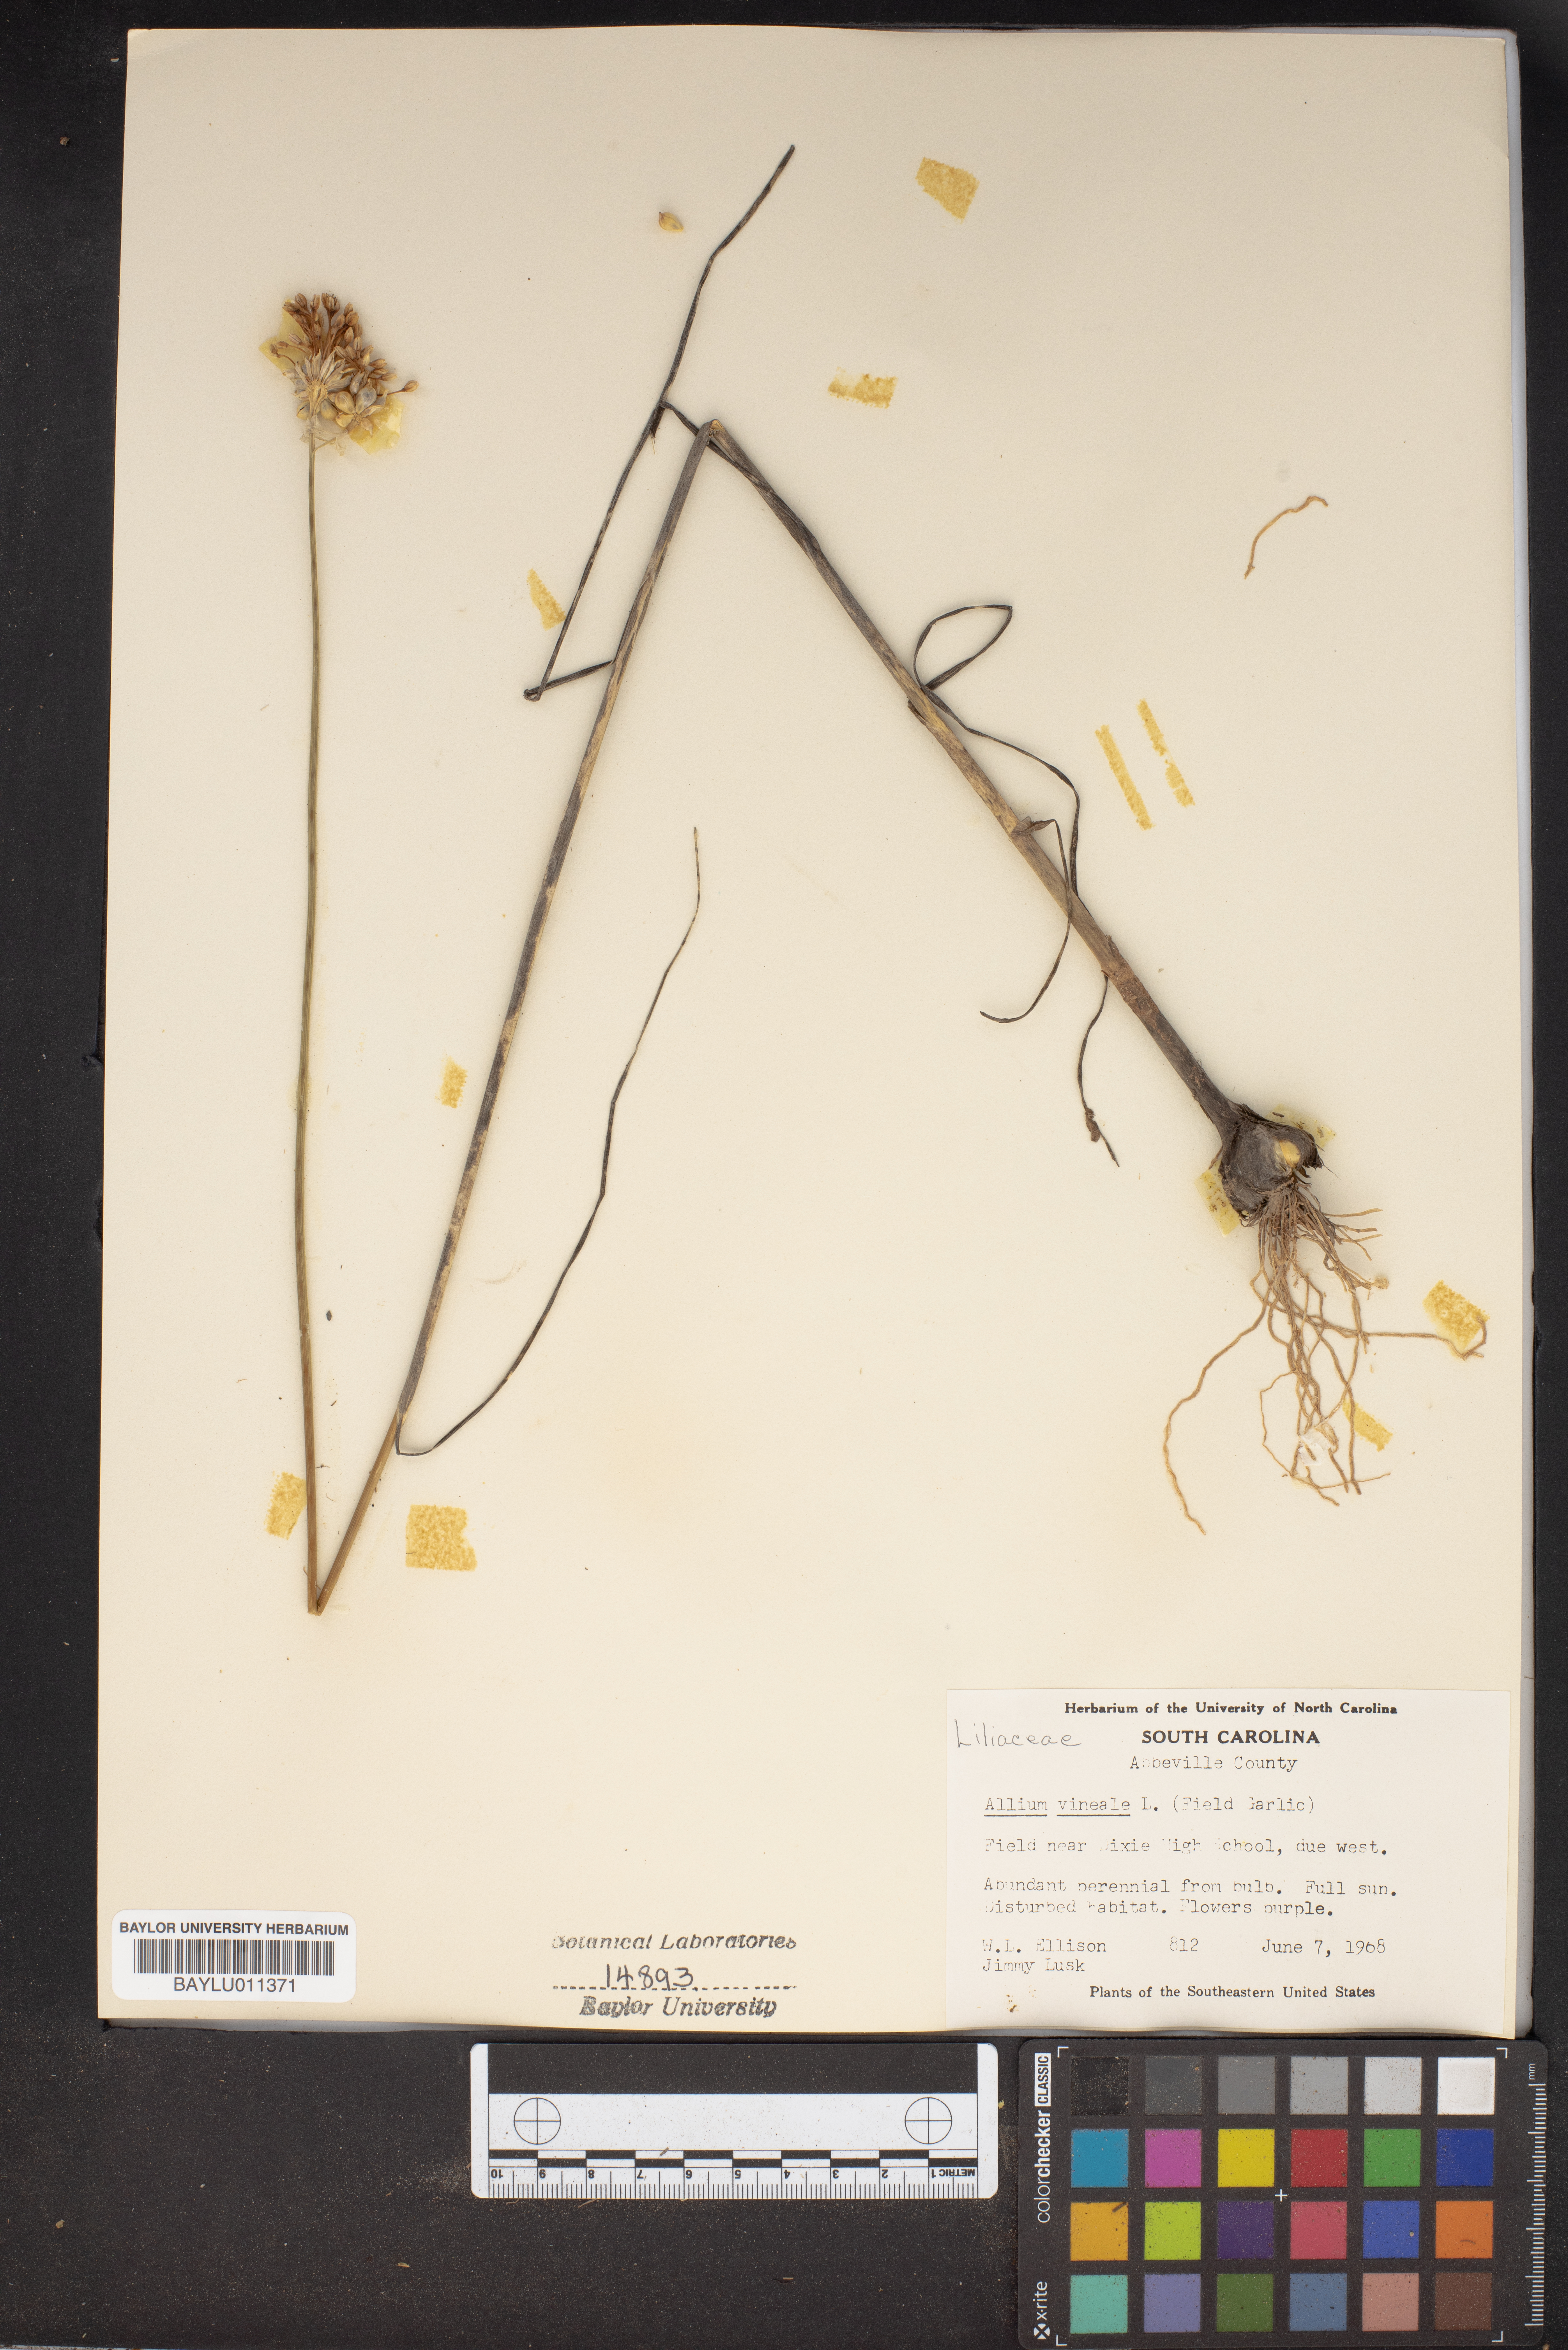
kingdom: Plantae
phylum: Tracheophyta
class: Liliopsida
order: Asparagales
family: Amaryllidaceae
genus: Allium
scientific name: Allium vineale
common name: Crow garlic
